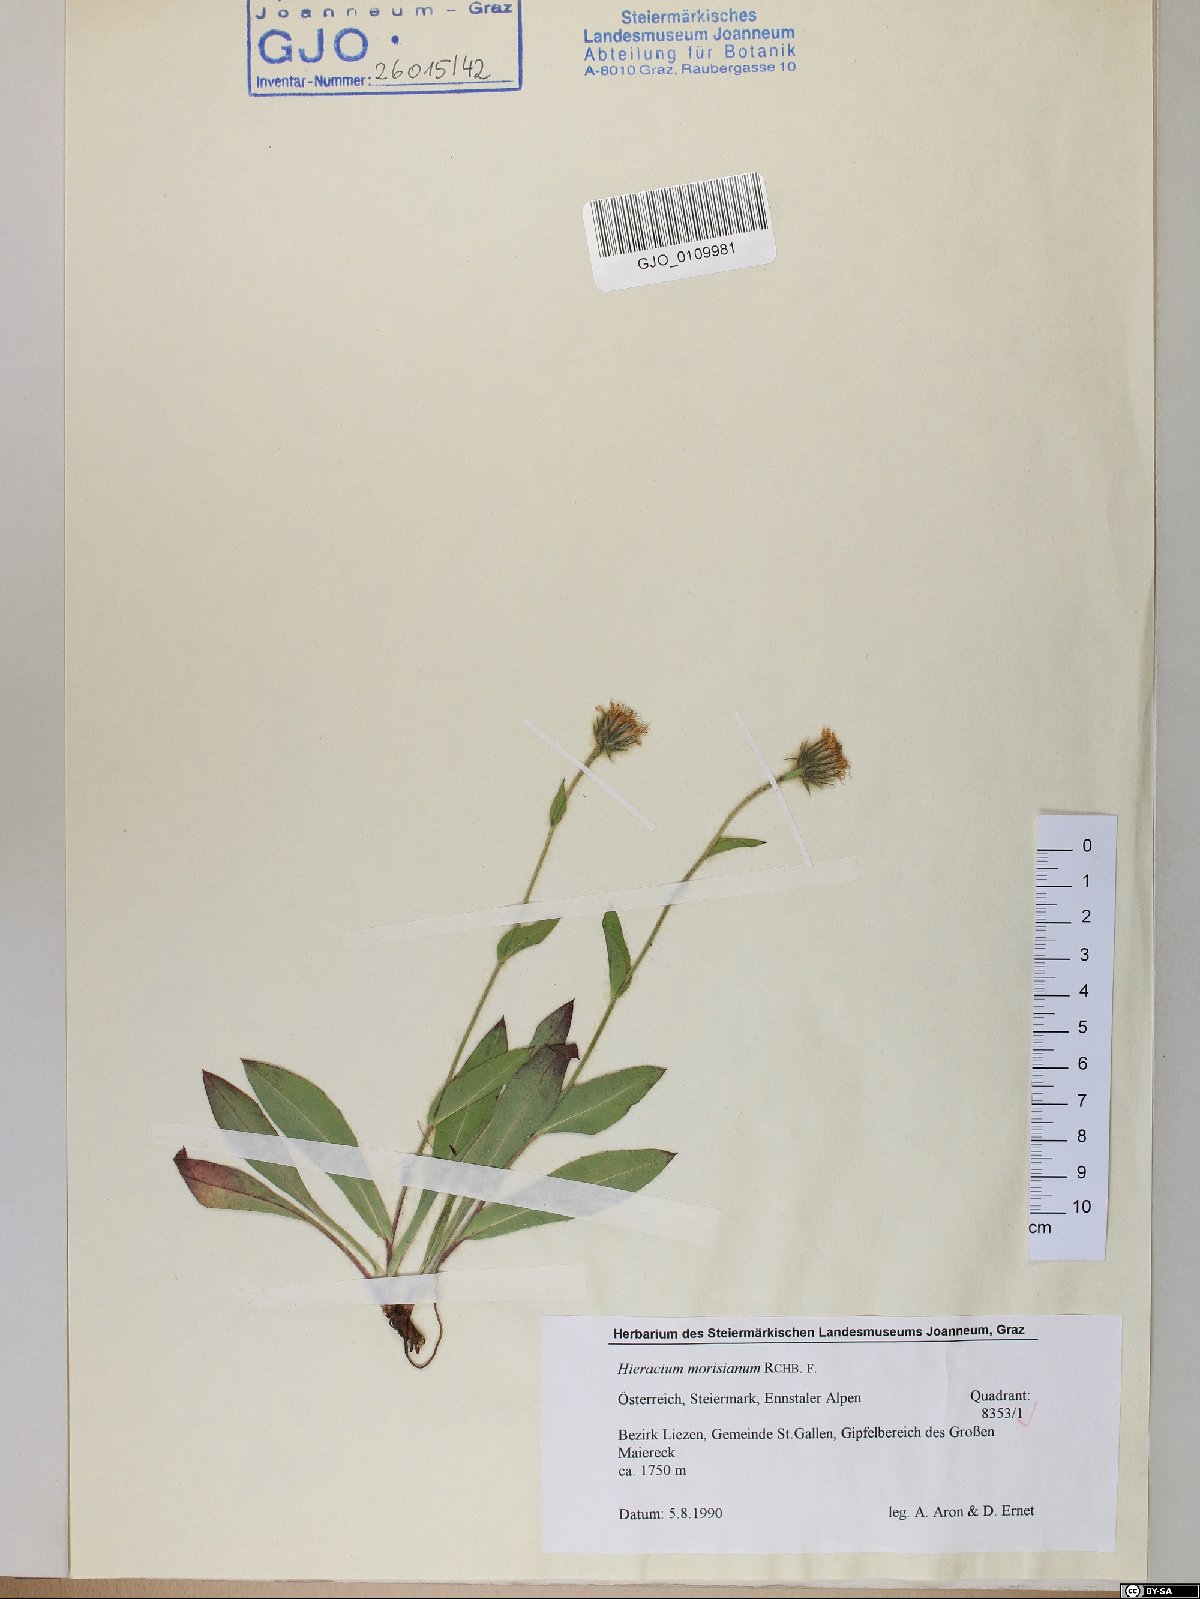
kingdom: Plantae
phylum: Tracheophyta
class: Magnoliopsida
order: Asterales
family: Asteraceae
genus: Hieracium
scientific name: Hieracium pilosum
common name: Fimbriate-pitted hawkweed
